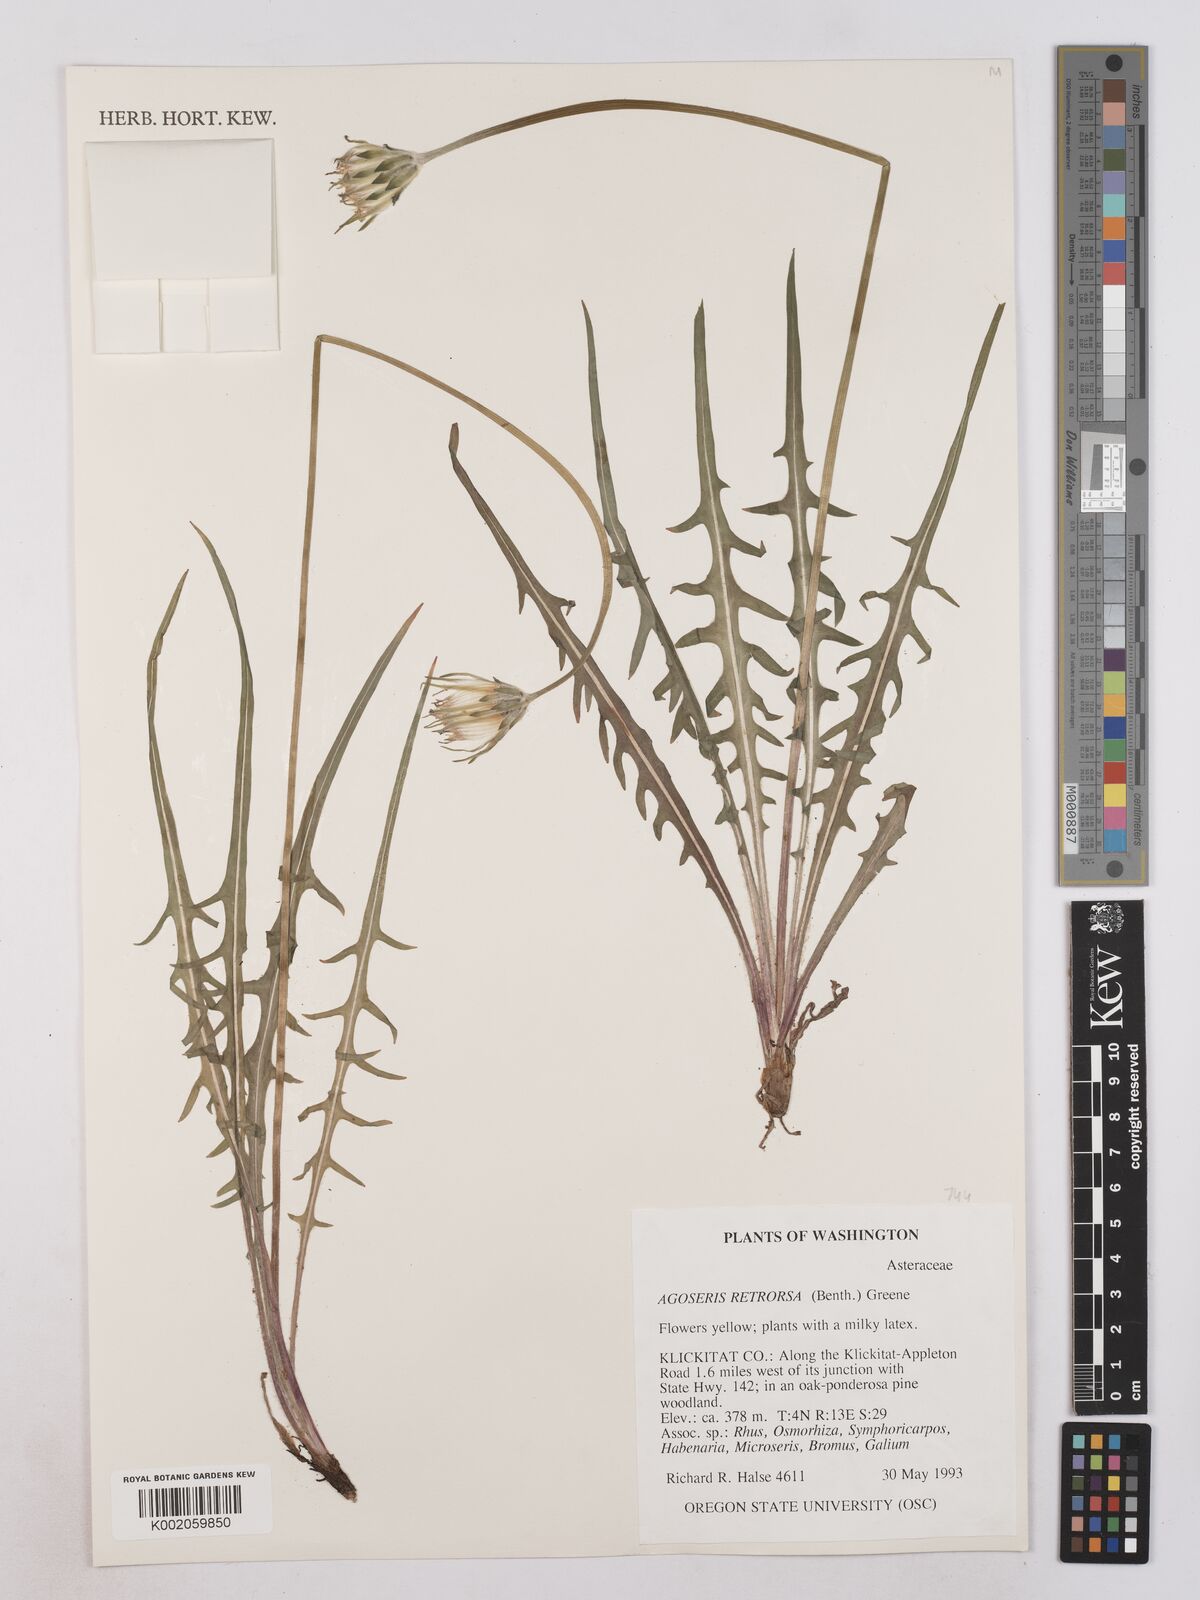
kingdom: Plantae
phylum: Tracheophyta
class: Magnoliopsida
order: Asterales
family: Asteraceae
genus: Agoseris
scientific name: Agoseris retrorsa
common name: Spearleaf agoseris
